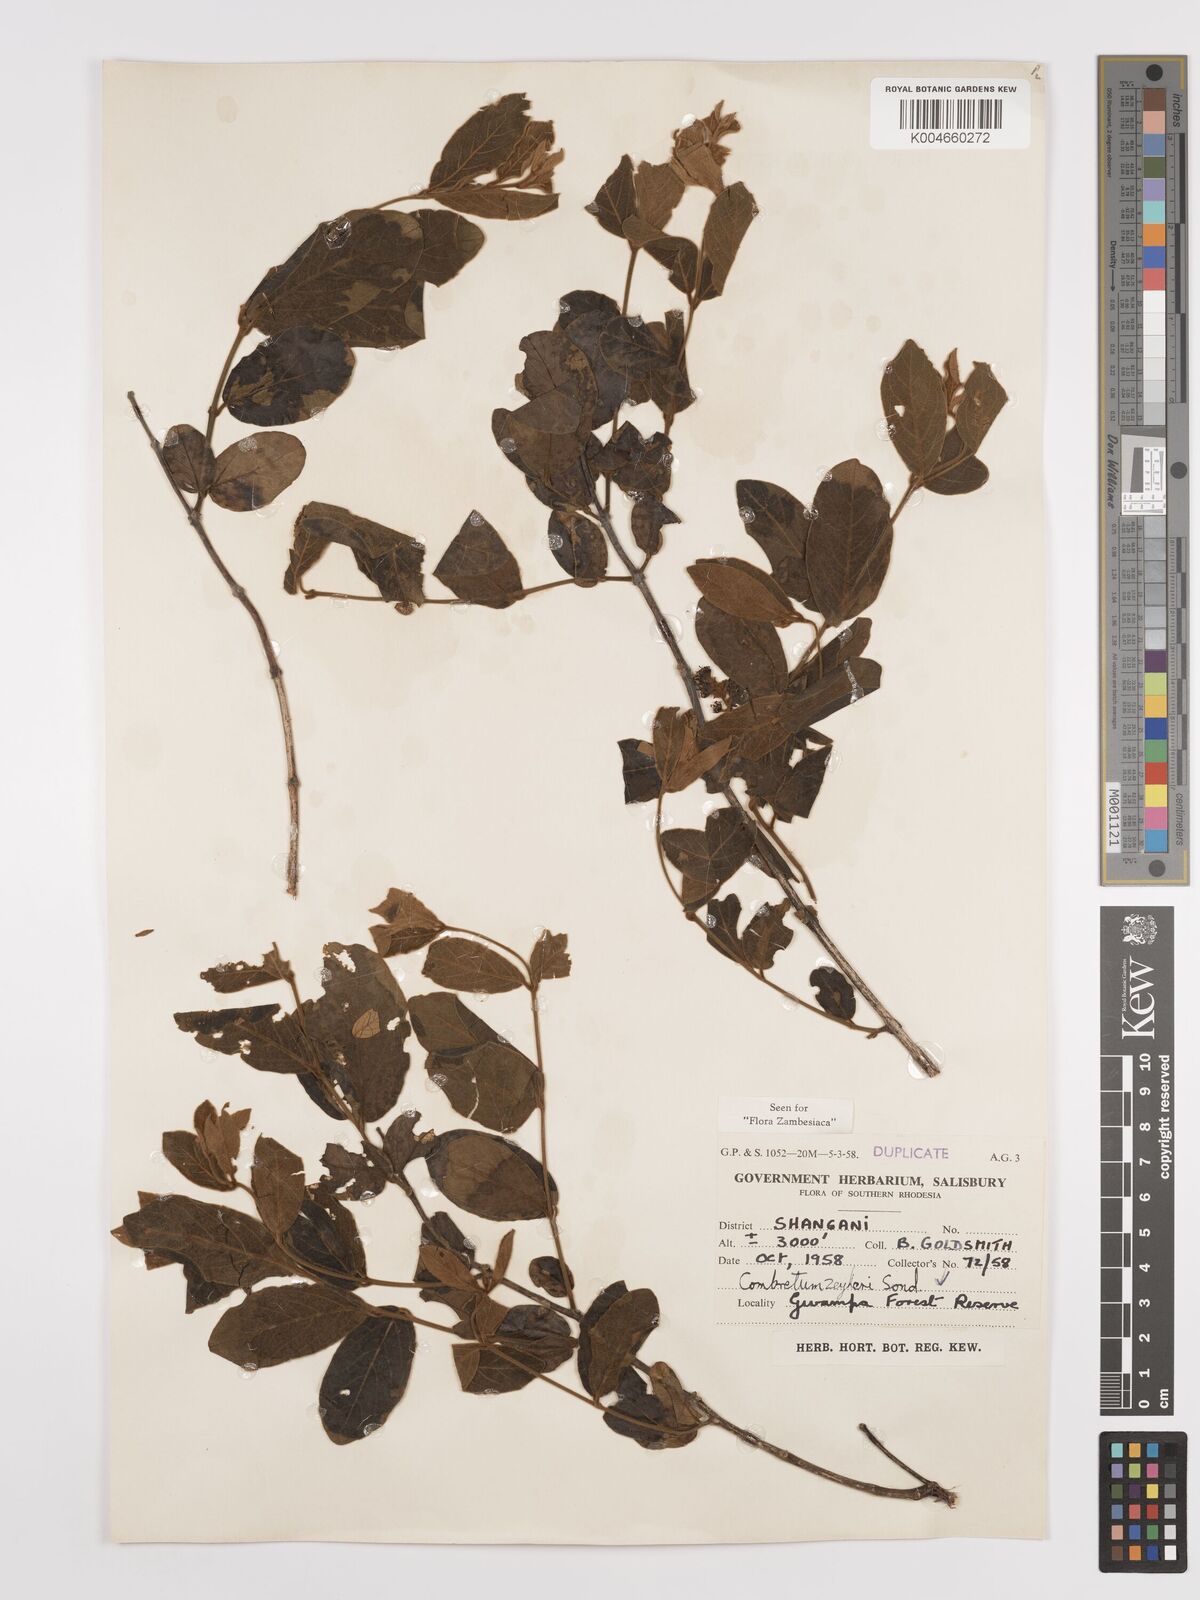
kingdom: Plantae
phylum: Tracheophyta
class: Magnoliopsida
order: Myrtales
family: Combretaceae
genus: Combretum
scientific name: Combretum zeyheri
